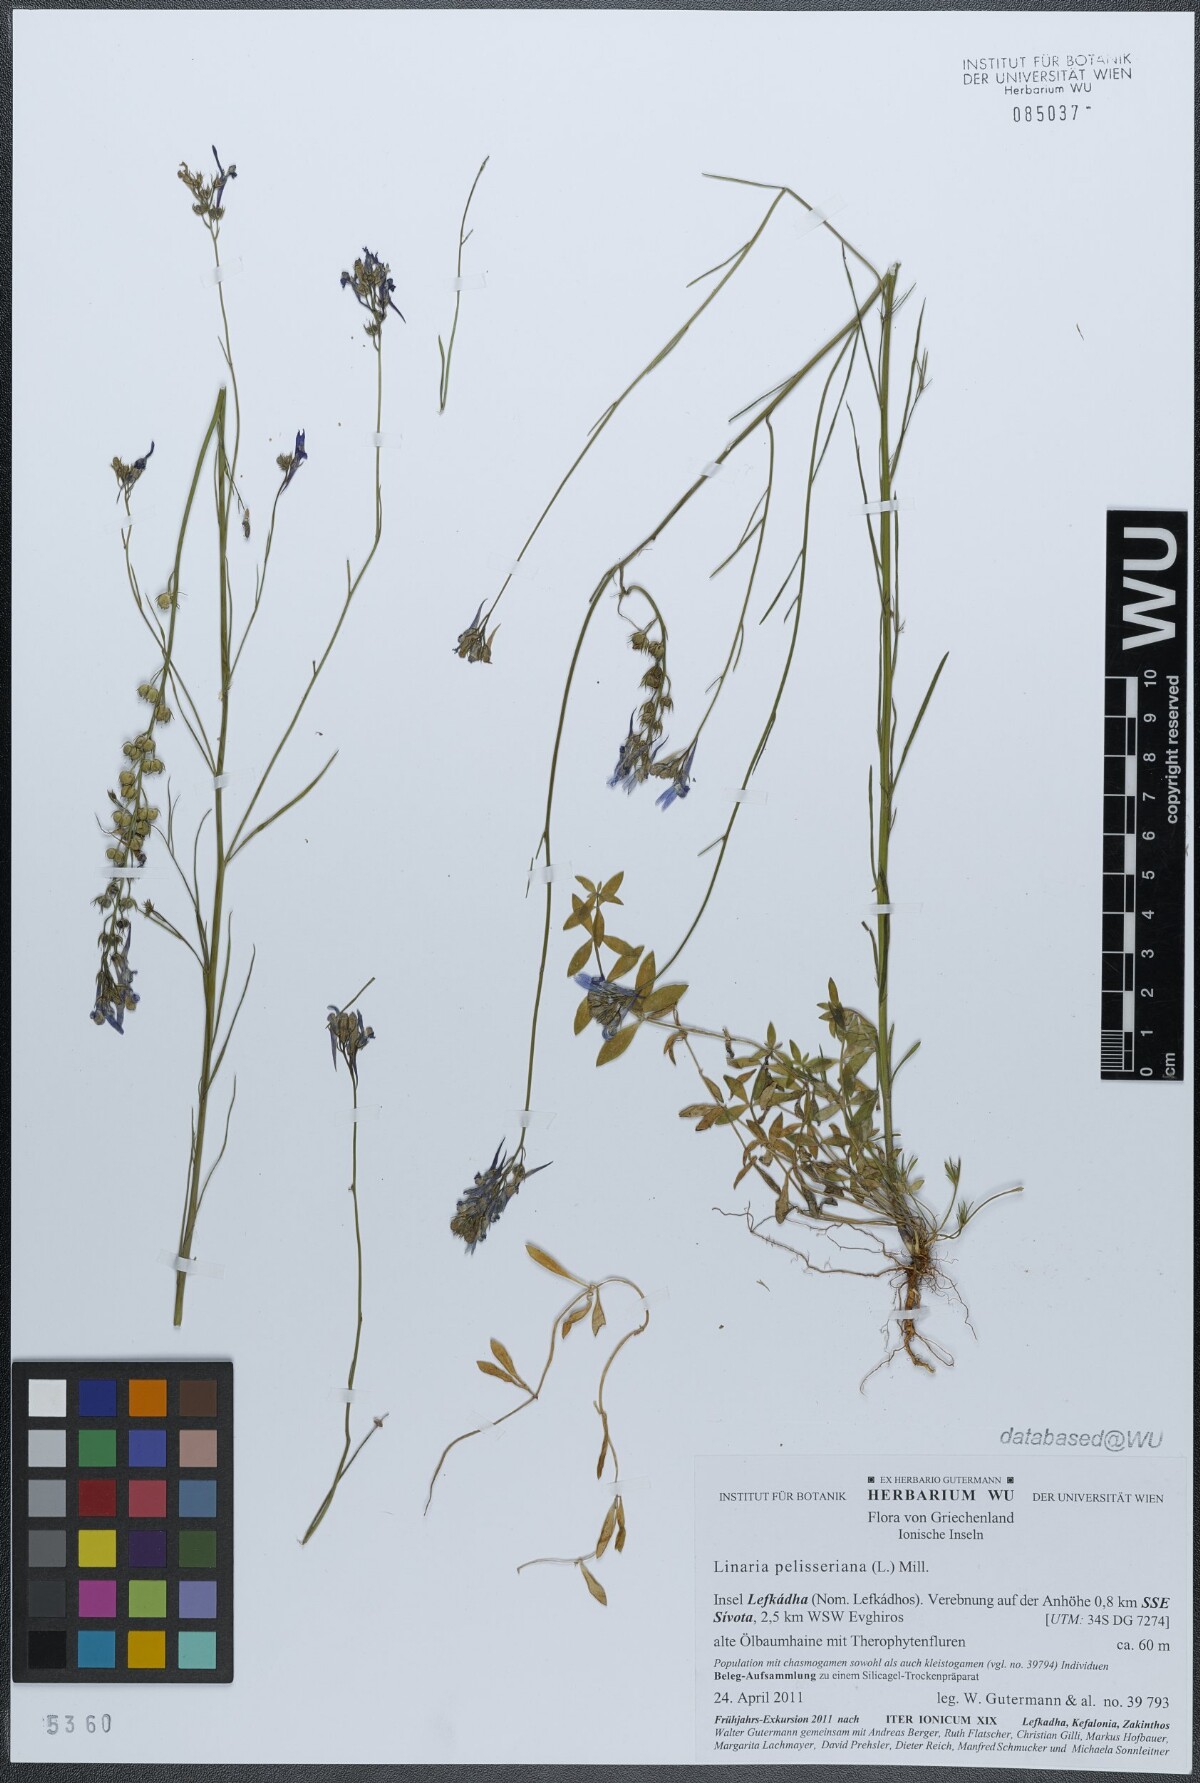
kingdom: Plantae
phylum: Tracheophyta
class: Magnoliopsida
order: Lamiales
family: Plantaginaceae
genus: Linaria
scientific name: Linaria pelisseriana
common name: Jersey toadflax
